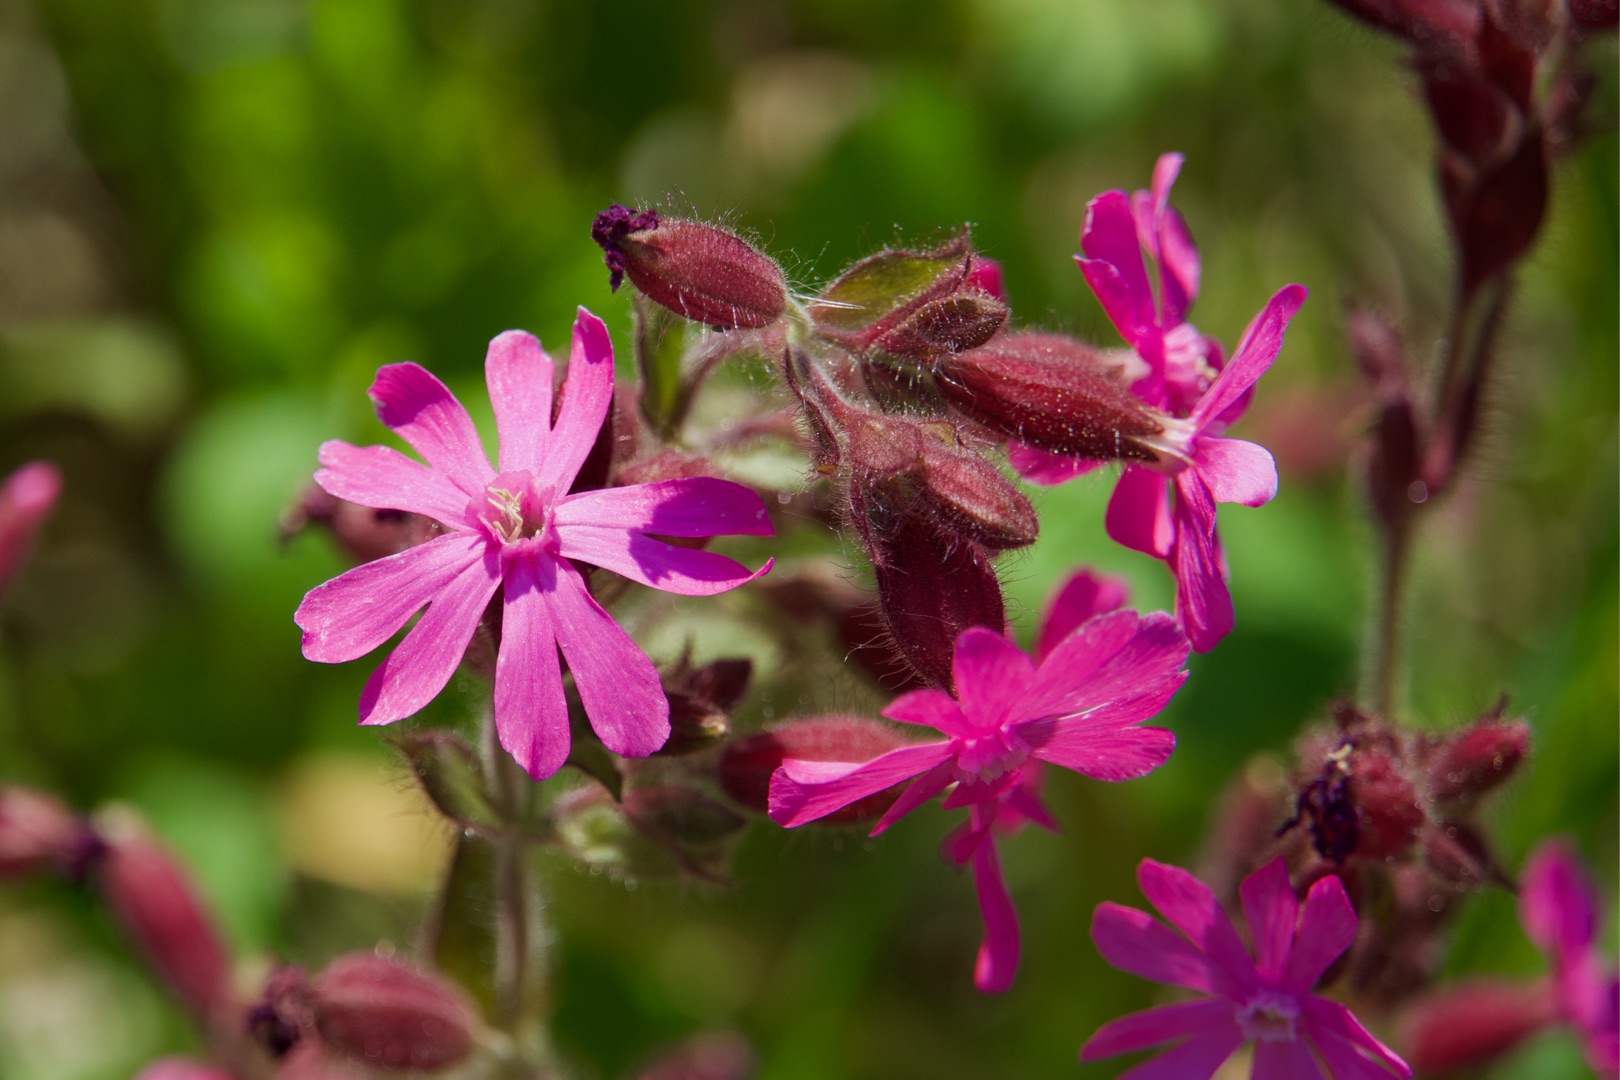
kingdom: Plantae
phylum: Tracheophyta
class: Magnoliopsida
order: Caryophyllales
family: Caryophyllaceae
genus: Silene
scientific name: Silene dioica
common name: Dagpragtstjerne
